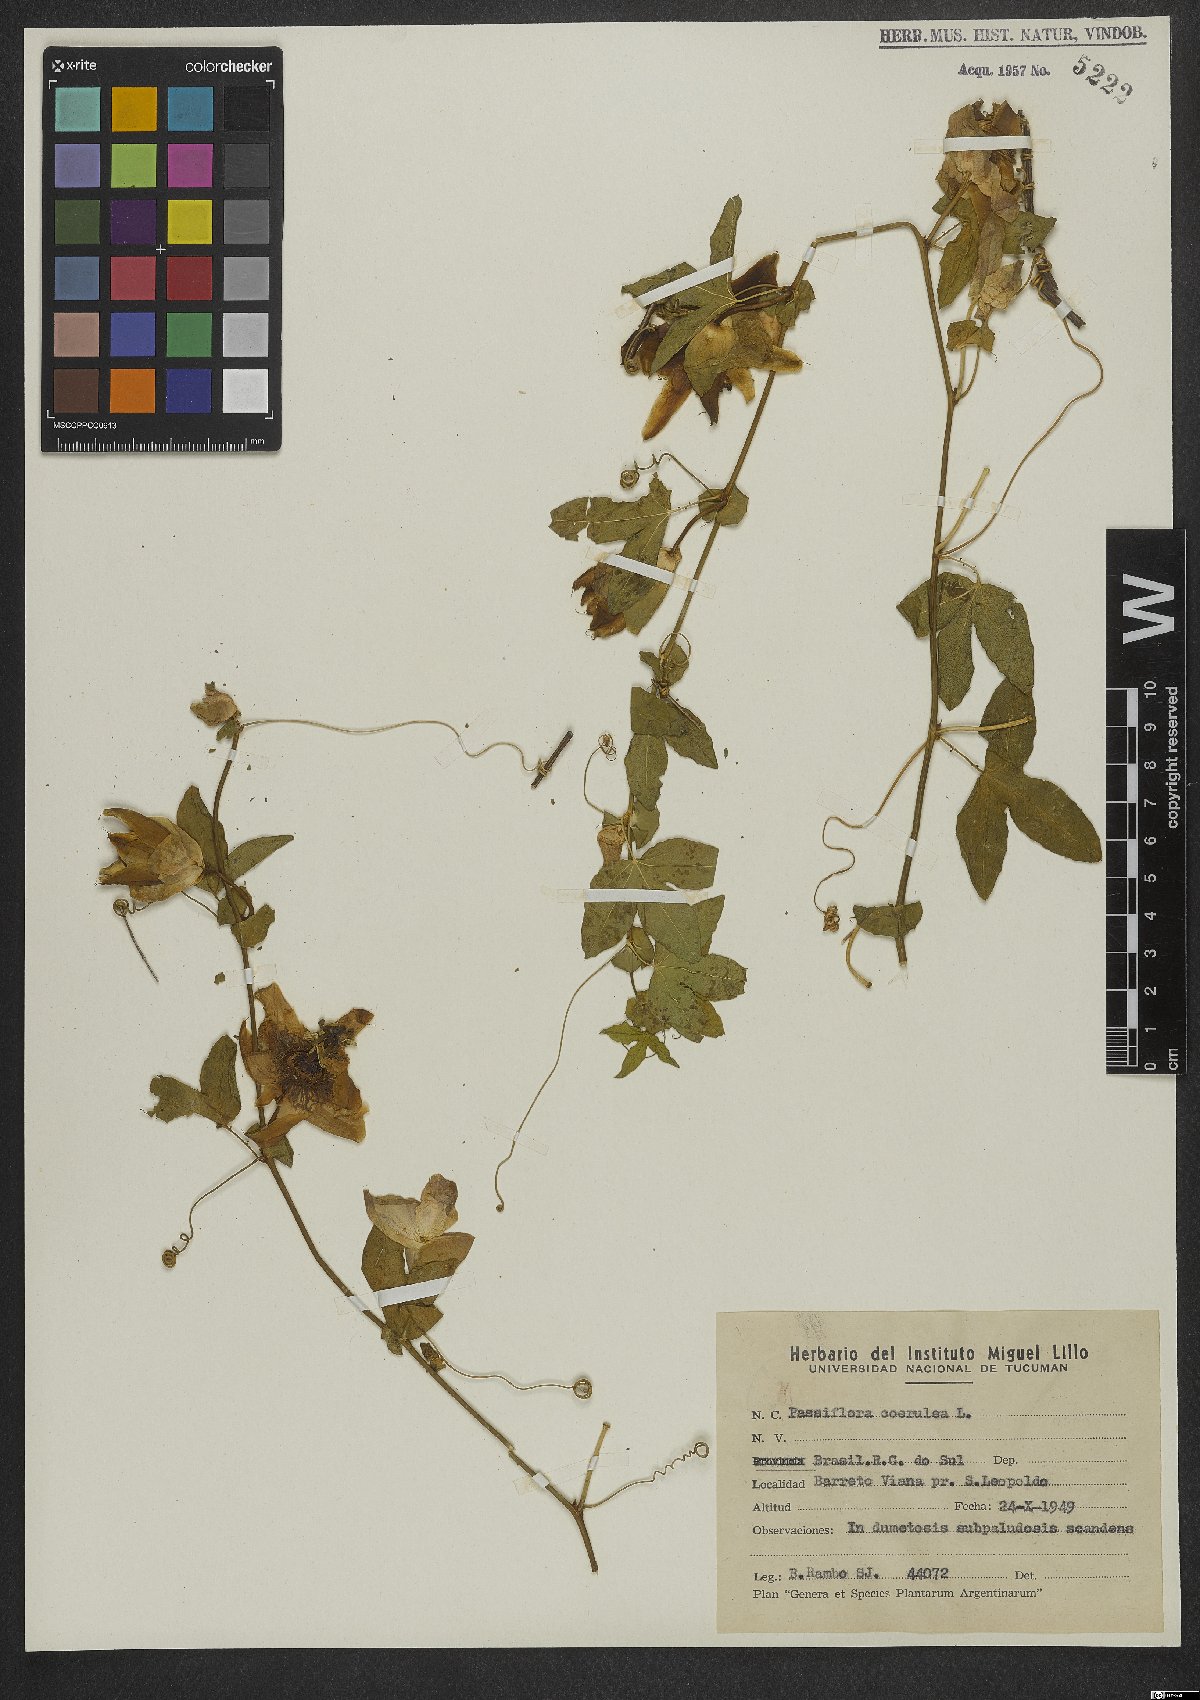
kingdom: Plantae
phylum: Tracheophyta
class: Magnoliopsida
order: Malpighiales
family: Passifloraceae
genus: Passiflora
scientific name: Passiflora caerulea
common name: Blue passionflower
